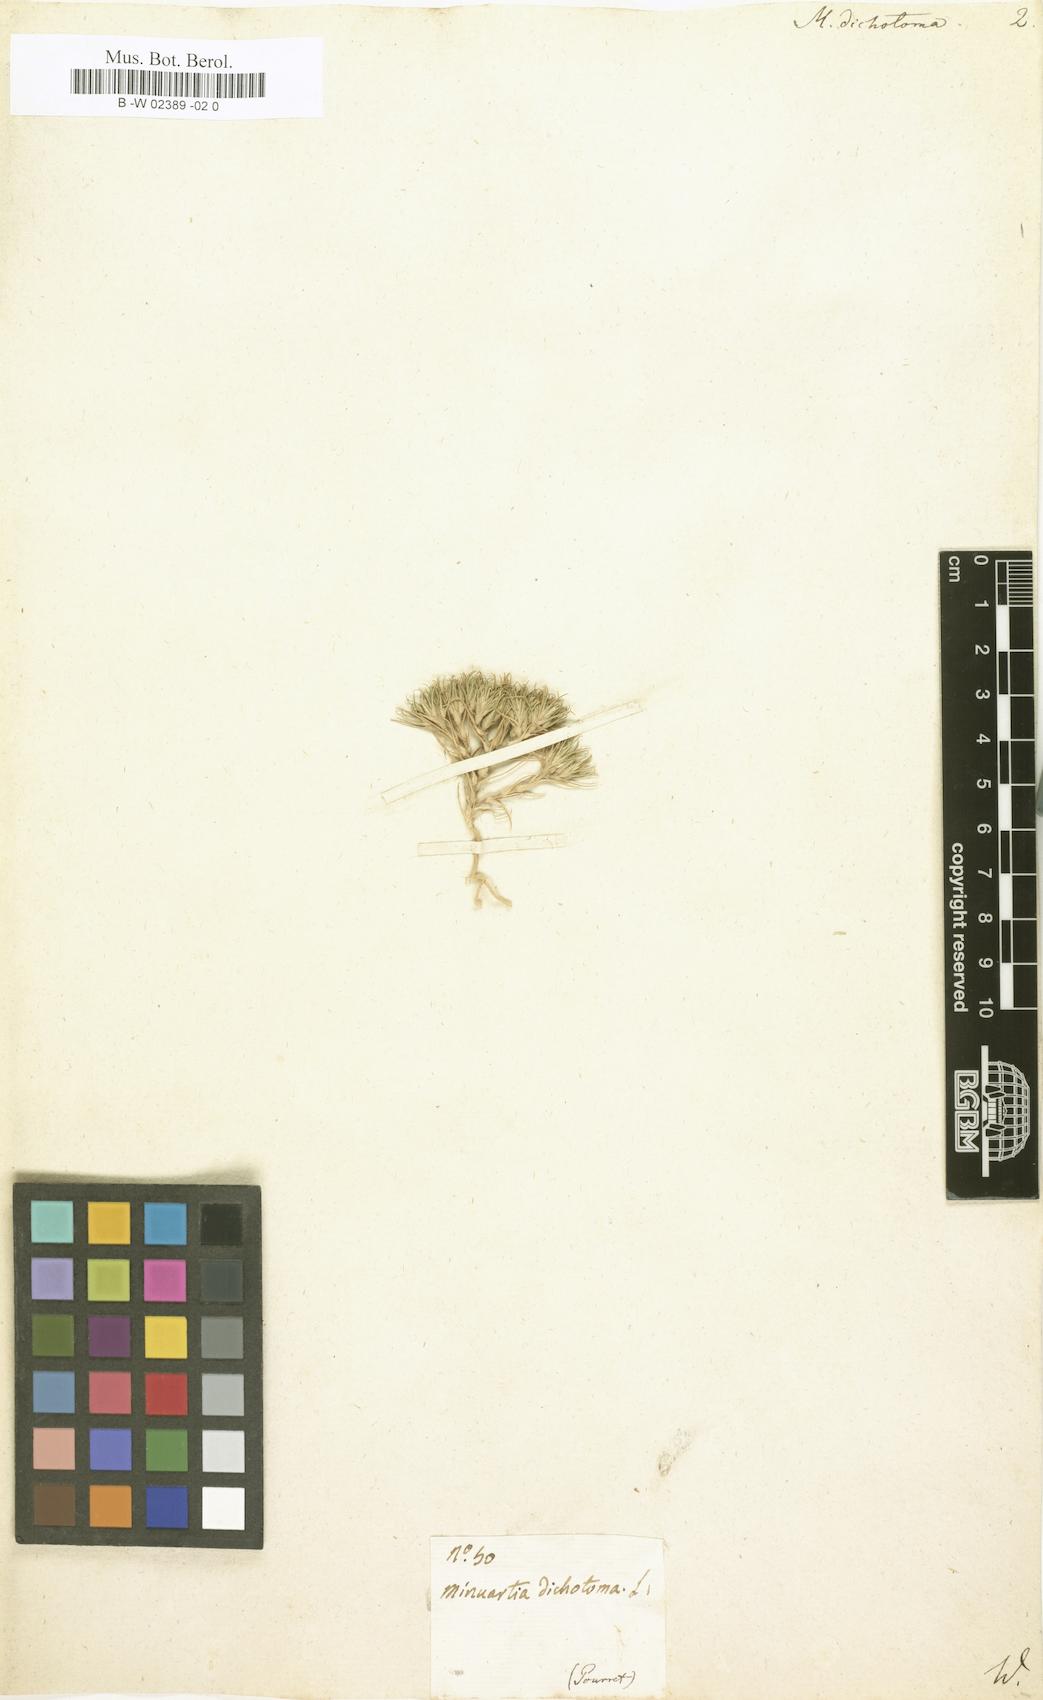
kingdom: Plantae
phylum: Tracheophyta
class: Magnoliopsida
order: Caryophyllales
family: Caryophyllaceae
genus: Minuartia
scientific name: Minuartia dichotoma
